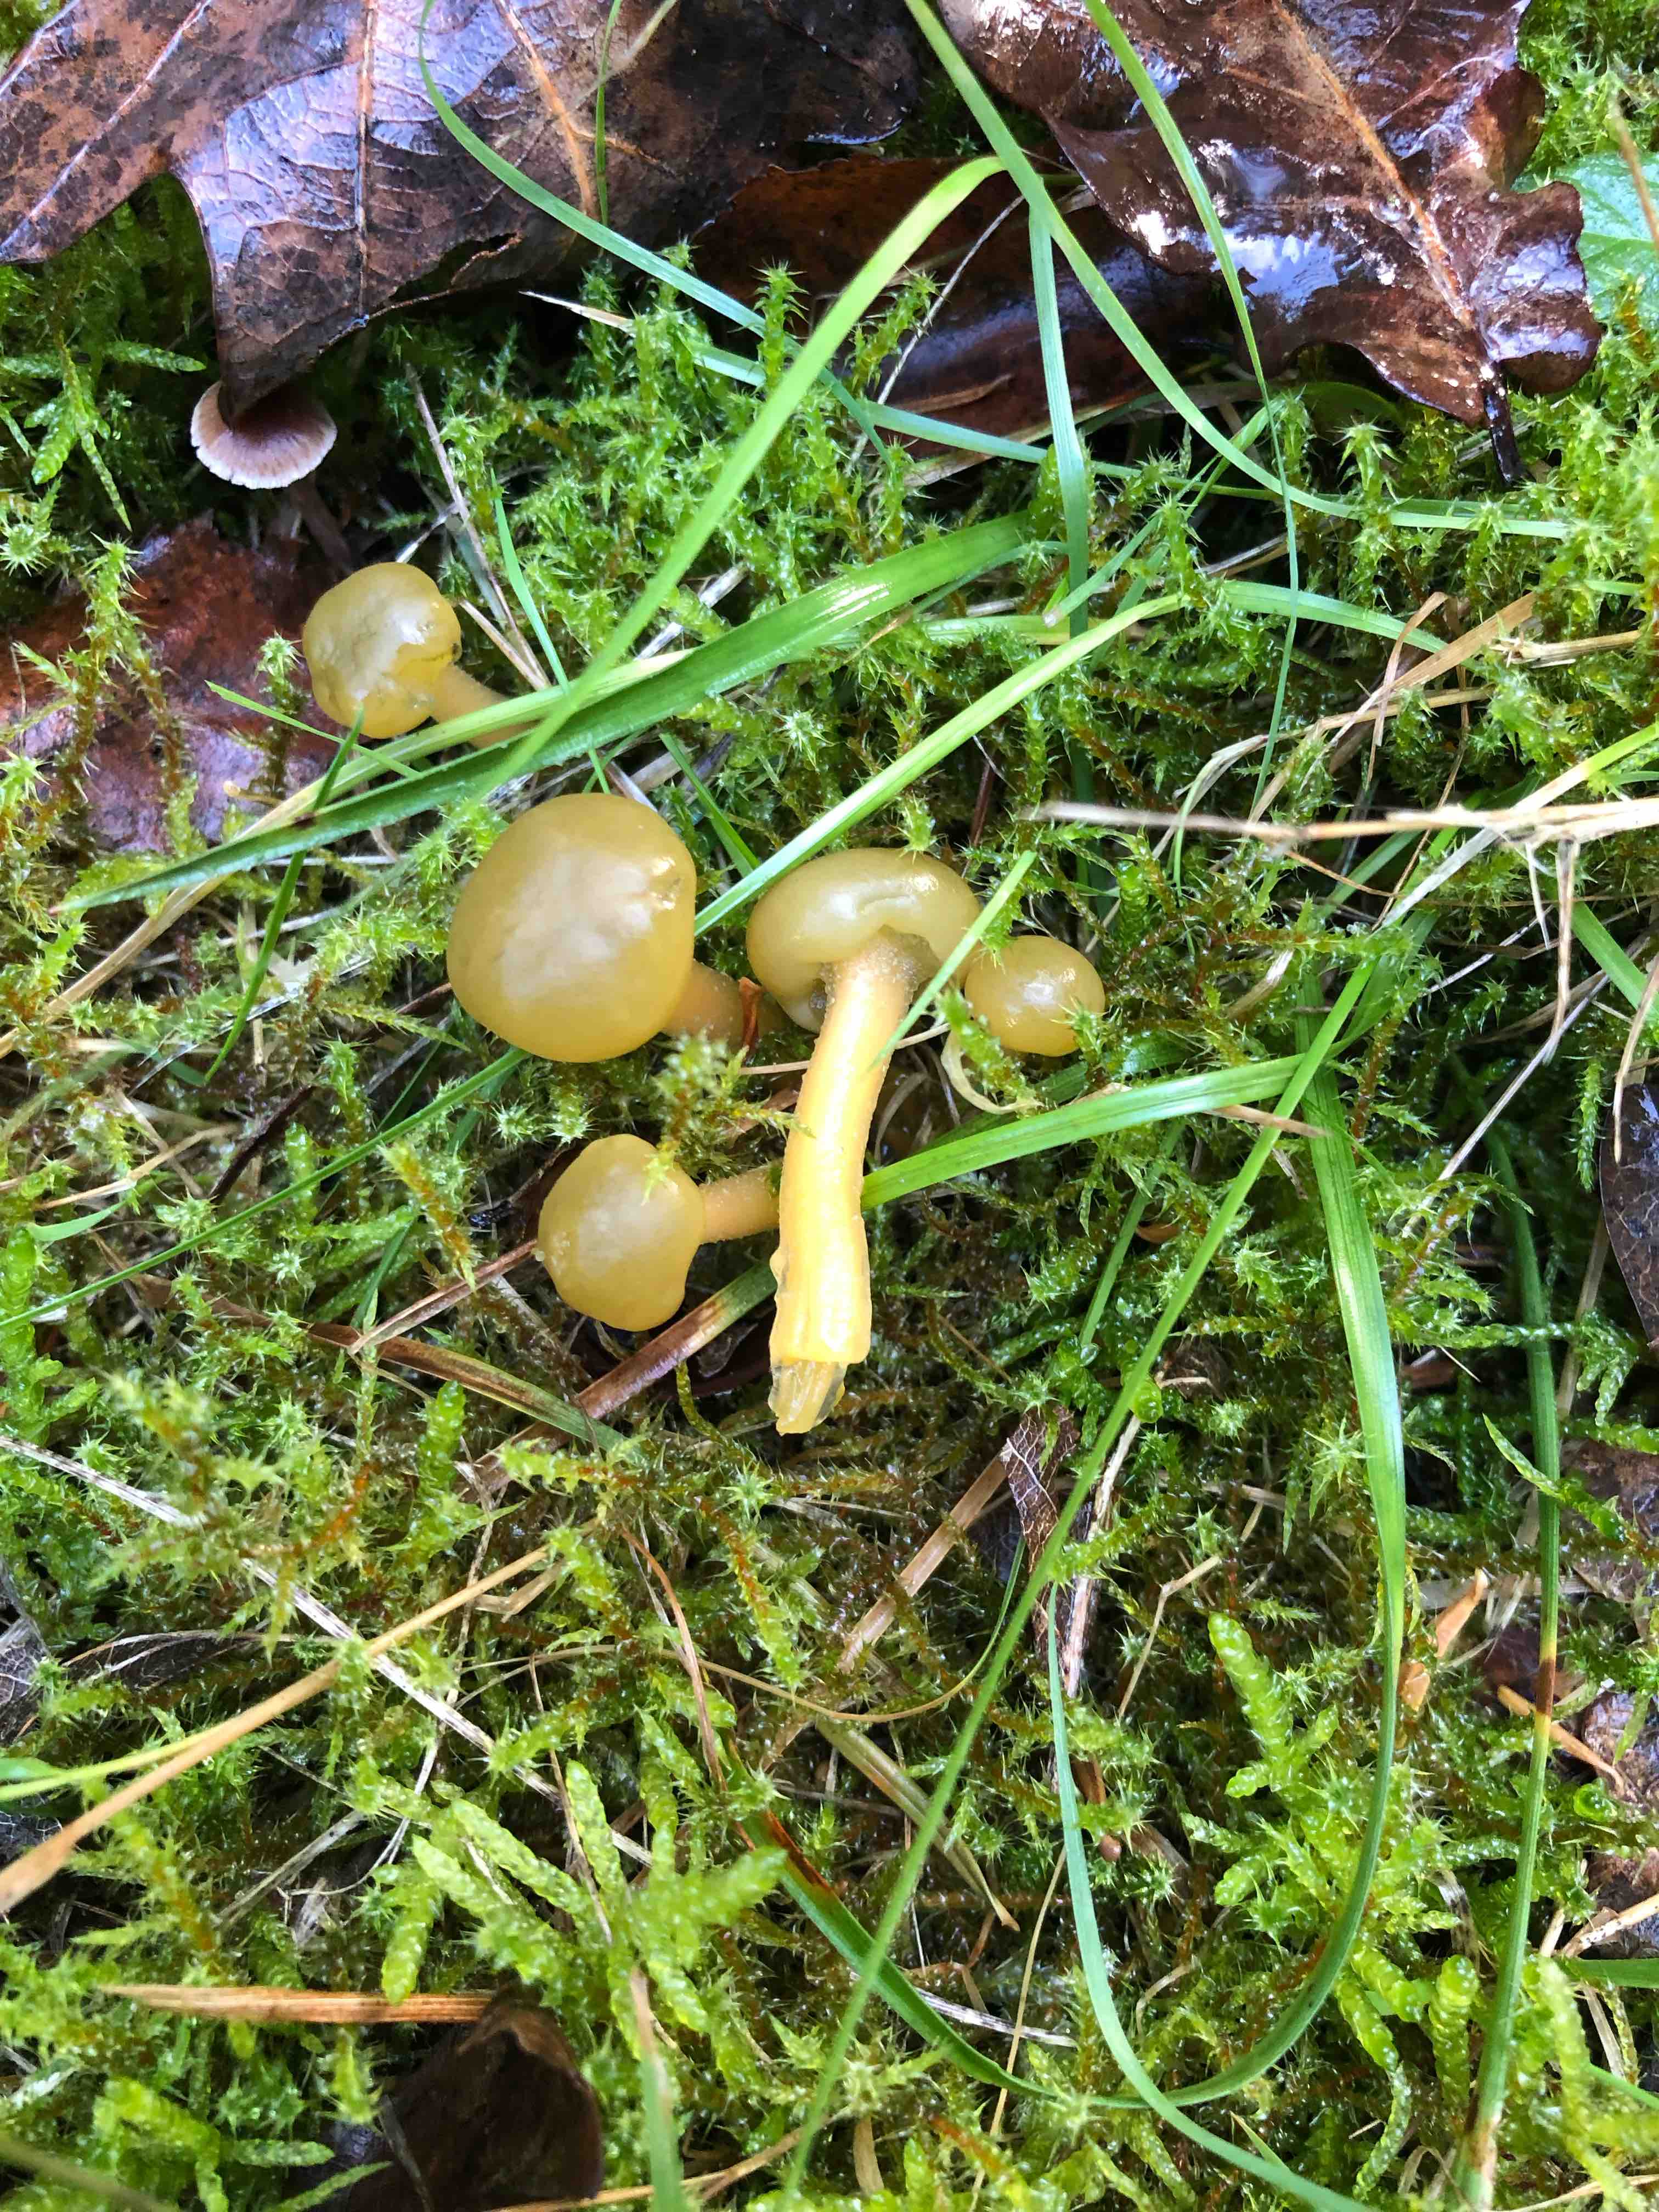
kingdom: Fungi
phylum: Ascomycota
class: Leotiomycetes
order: Leotiales
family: Leotiaceae
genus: Leotia
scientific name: Leotia lubrica
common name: ravsvamp
